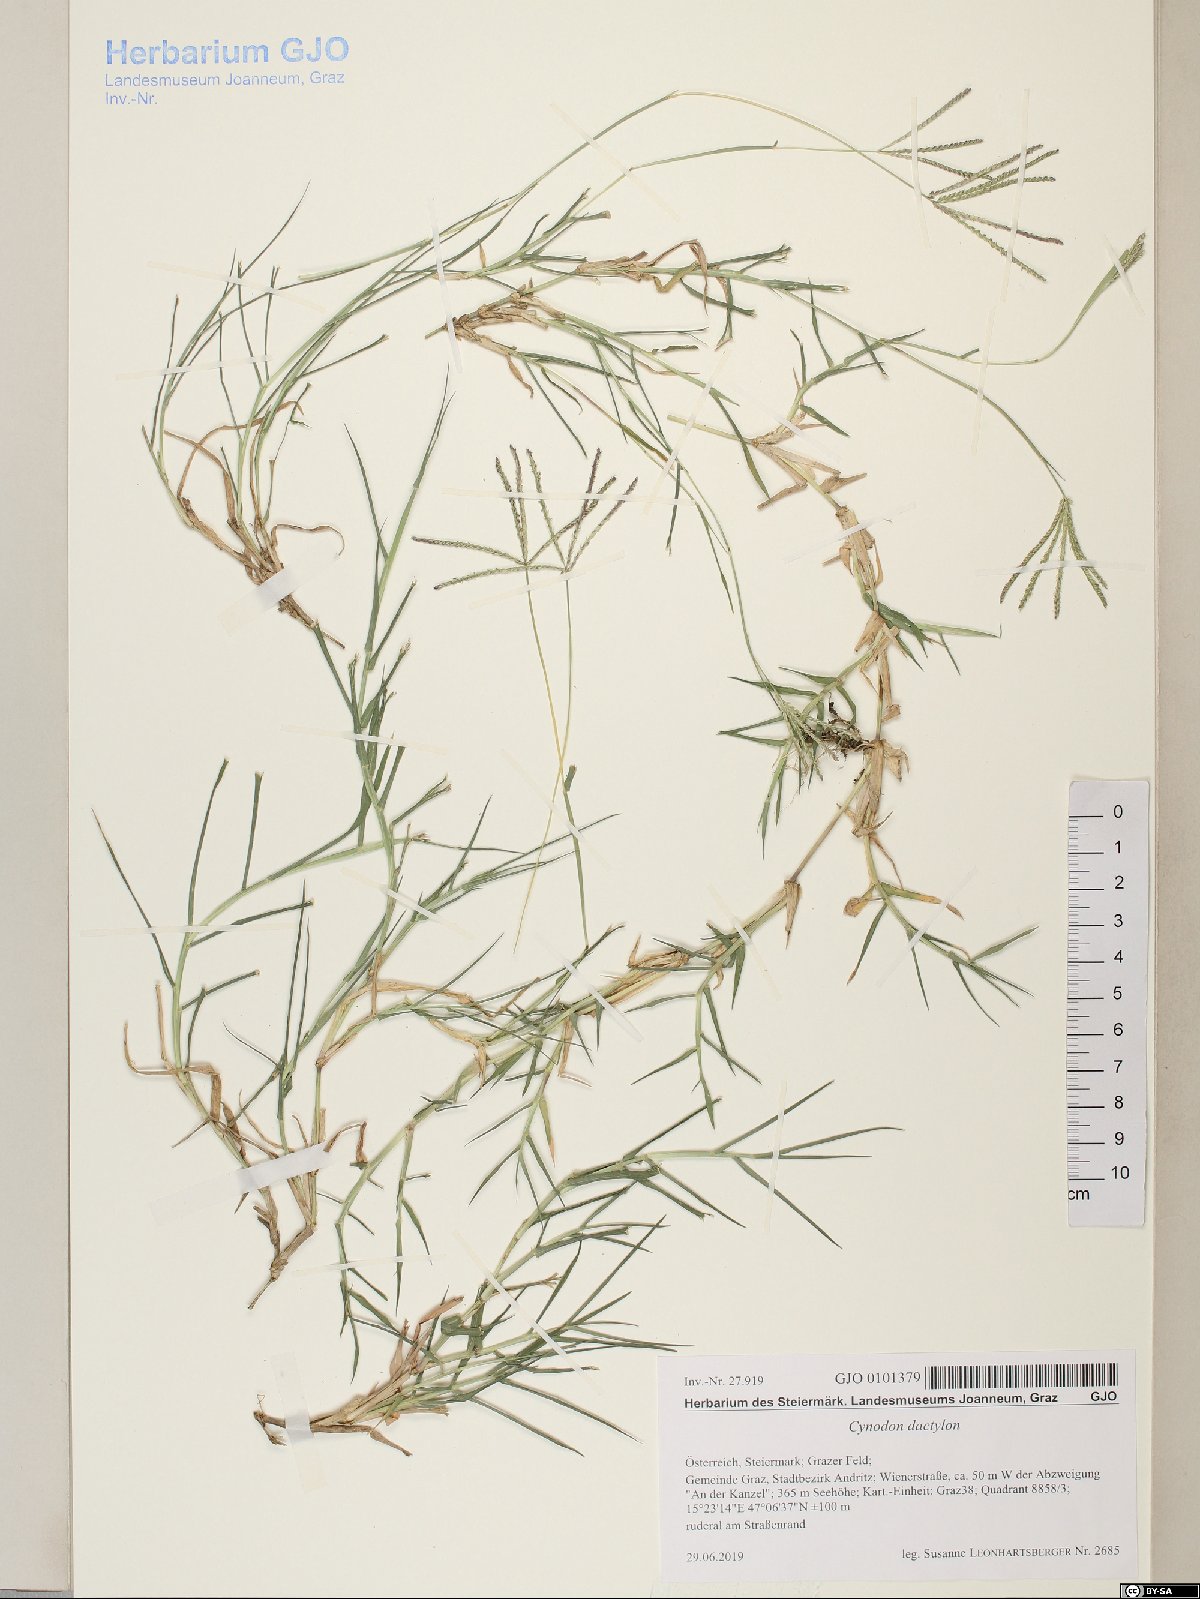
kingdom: Plantae
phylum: Tracheophyta
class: Liliopsida
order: Poales
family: Poaceae
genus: Cynodon
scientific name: Cynodon dactylon
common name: Bermuda grass
